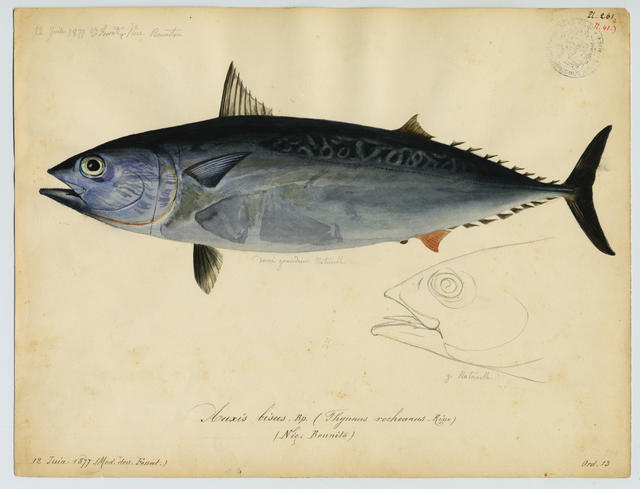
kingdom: Animalia
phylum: Chordata
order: Perciformes
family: Scombridae
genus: Auxis
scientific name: Auxis rochei
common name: Bullet tuna
